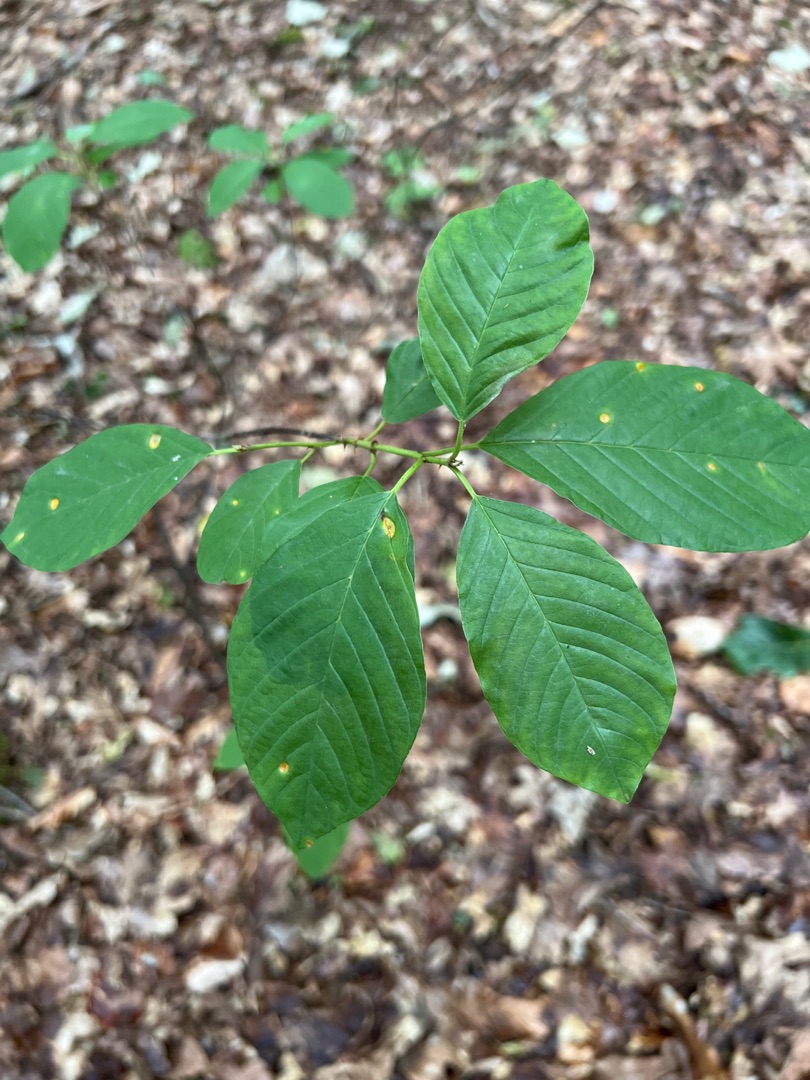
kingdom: Plantae
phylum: Tracheophyta
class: Magnoliopsida
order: Rosales
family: Rhamnaceae
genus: Frangula
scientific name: Frangula alnus
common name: Tørst
